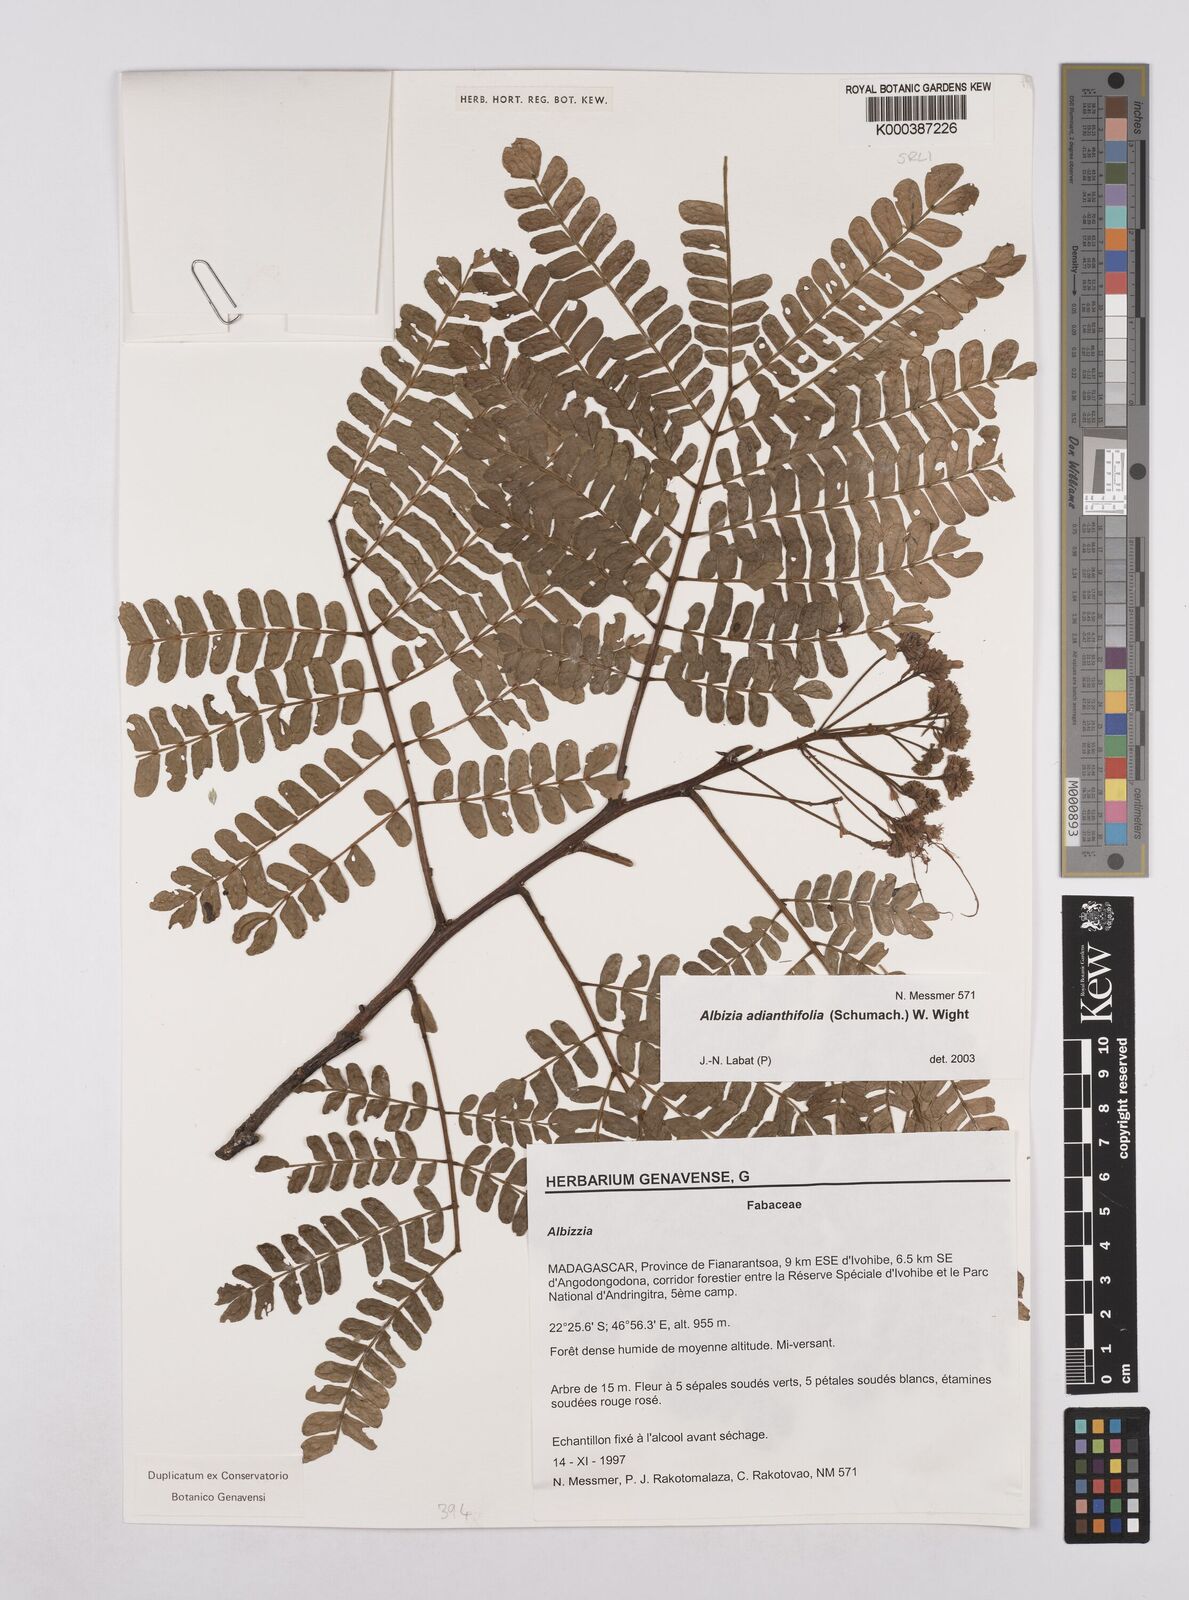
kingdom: Plantae
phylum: Tracheophyta
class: Magnoliopsida
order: Fabales
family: Fabaceae
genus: Albizia
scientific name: Albizia adianthifolia
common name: West african albizia
